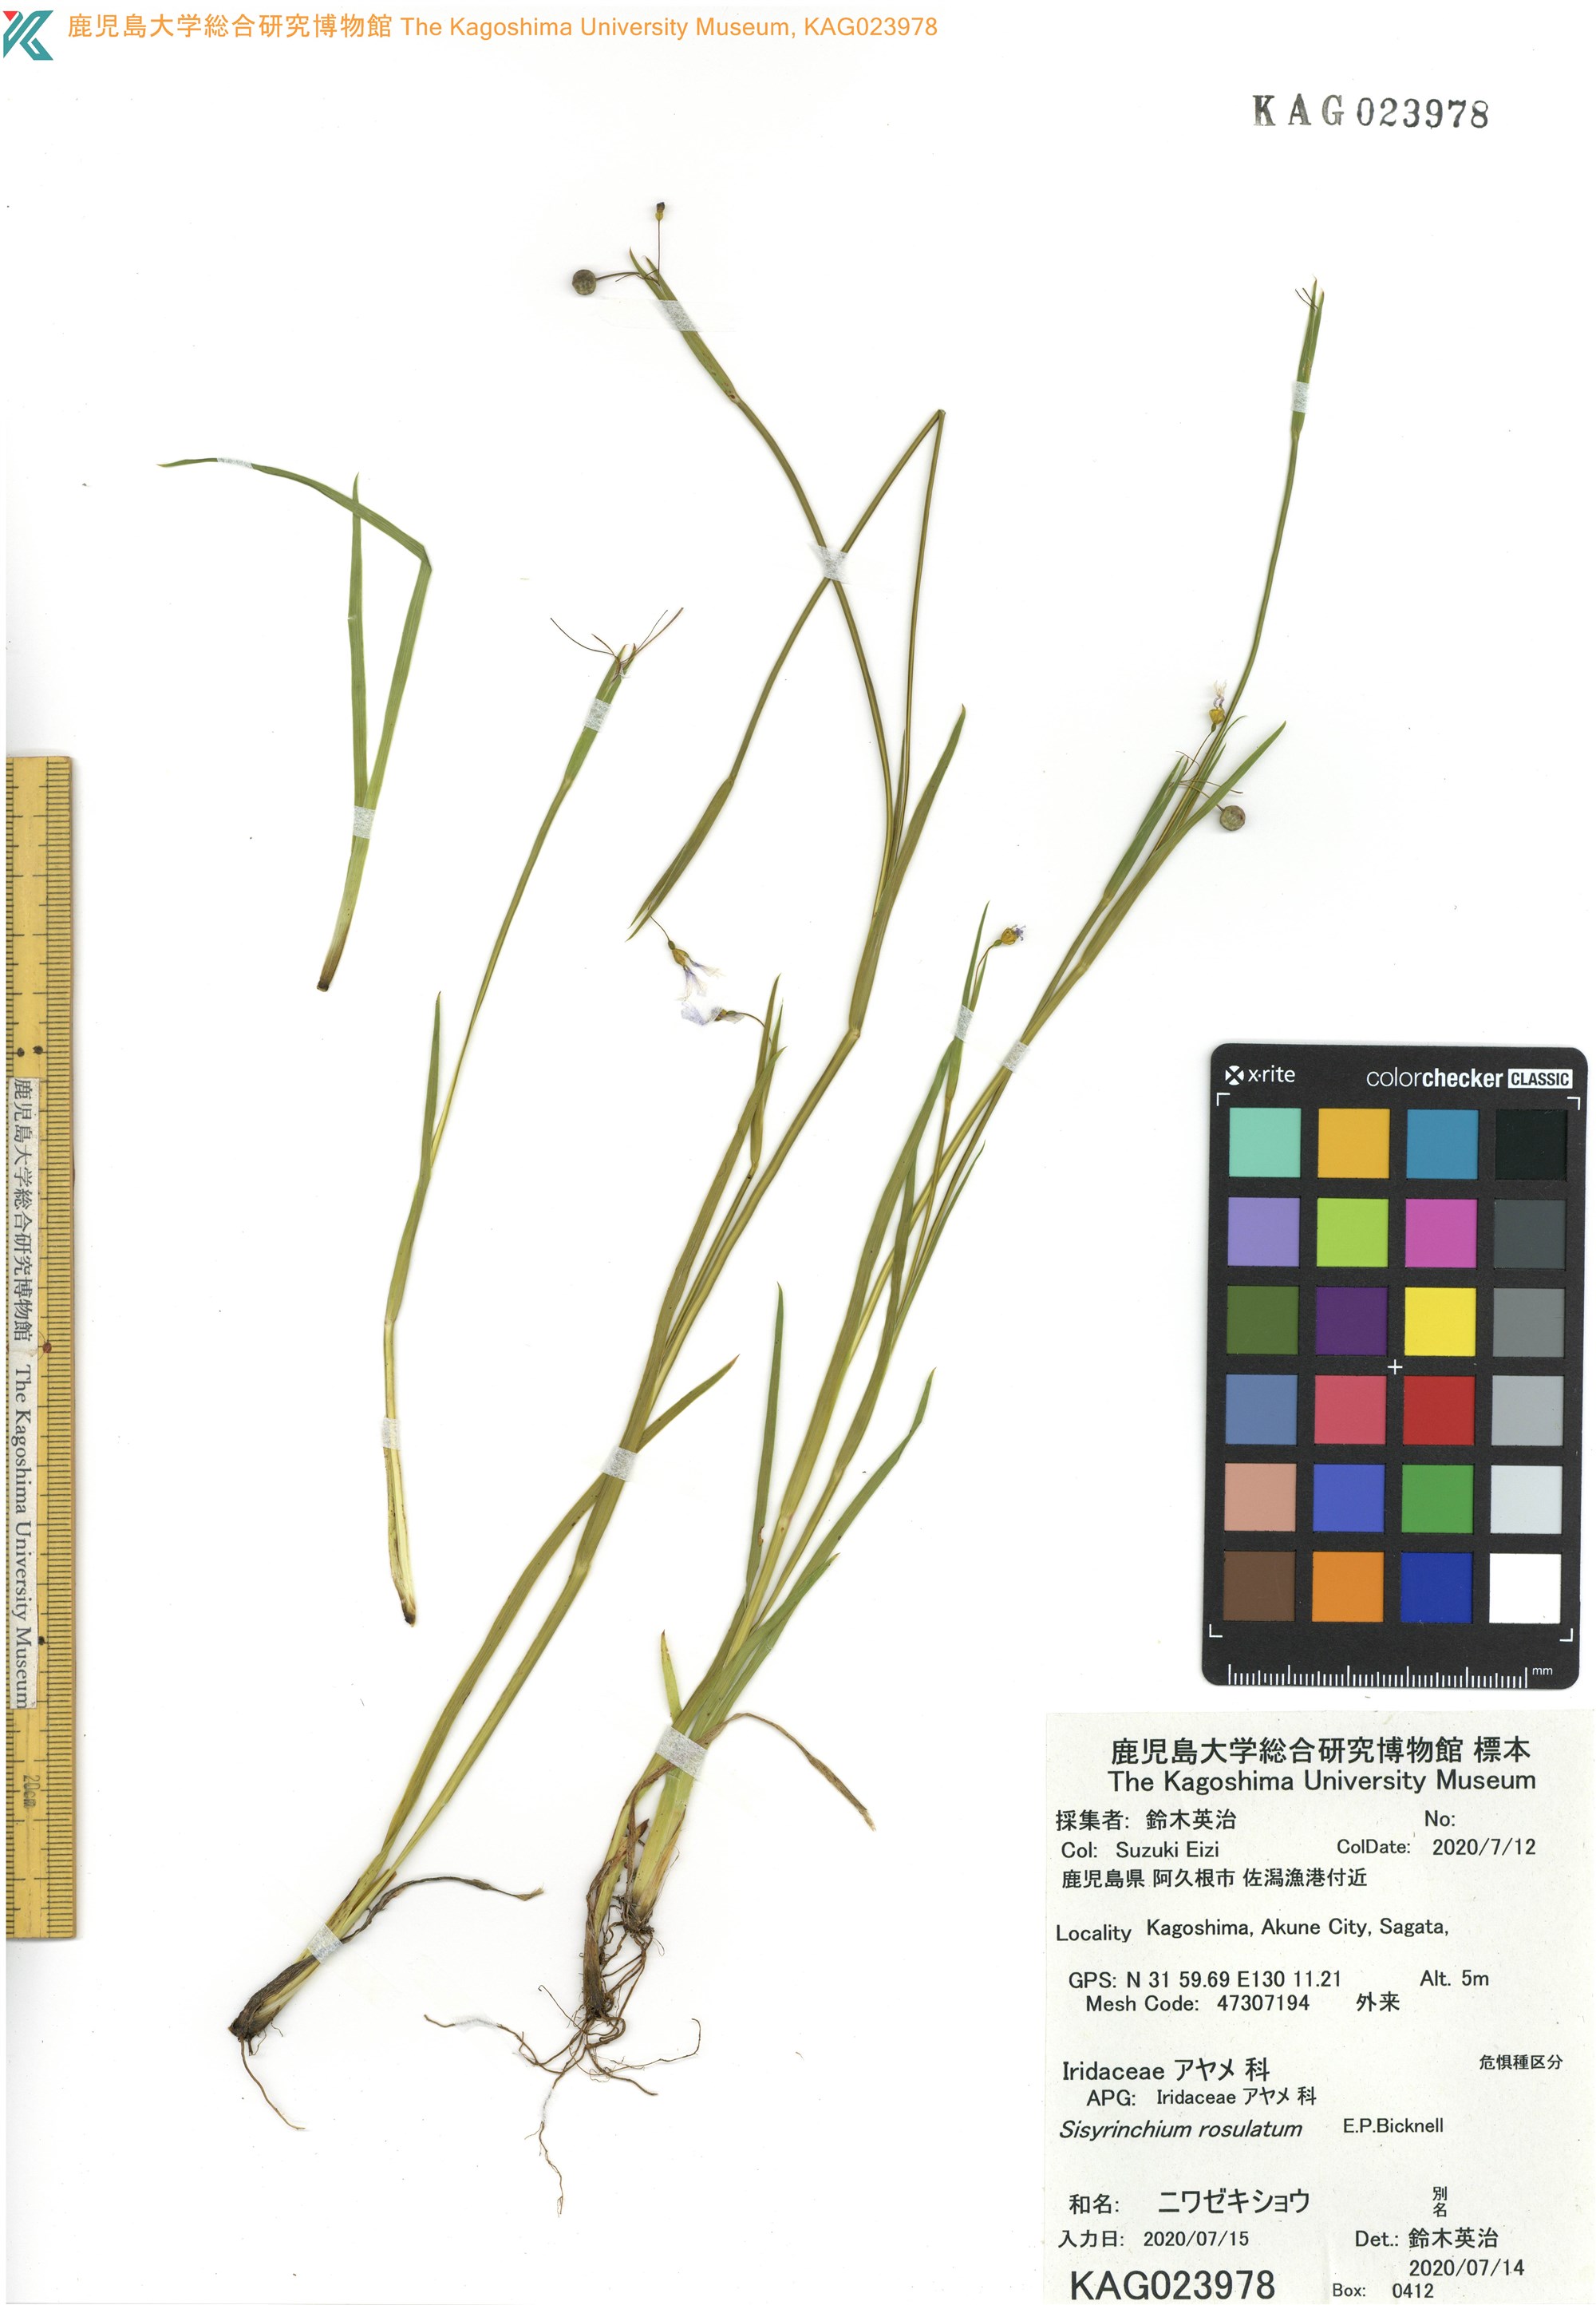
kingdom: Plantae
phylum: Tracheophyta
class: Liliopsida
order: Asparagales
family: Iridaceae
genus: Sisyrinchium
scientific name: Sisyrinchium rosulatum
